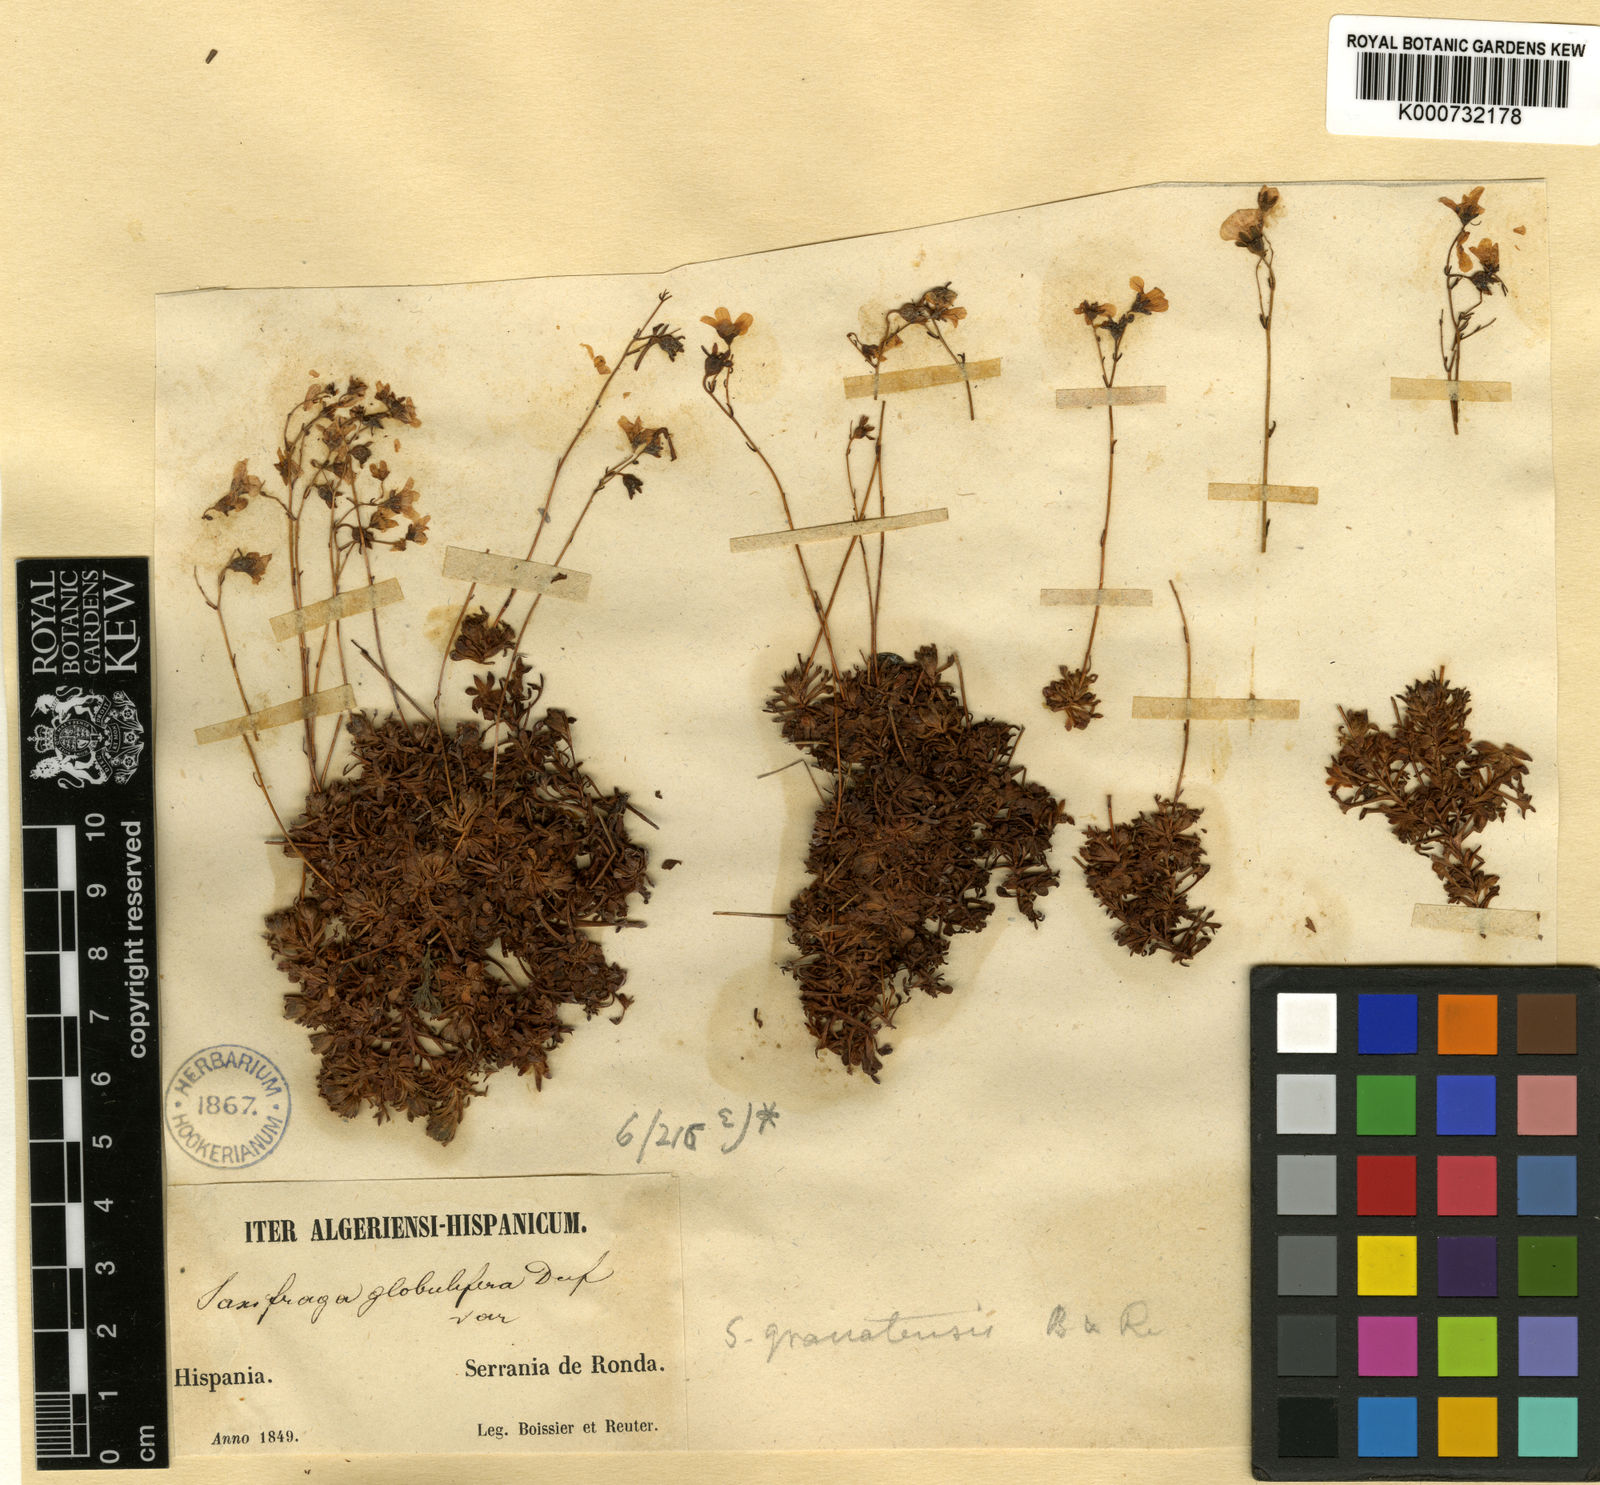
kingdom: Plantae
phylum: Tracheophyta
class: Magnoliopsida
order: Saxifragales
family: Saxifragaceae
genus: Saxifraga
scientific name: Saxifraga globulifera
